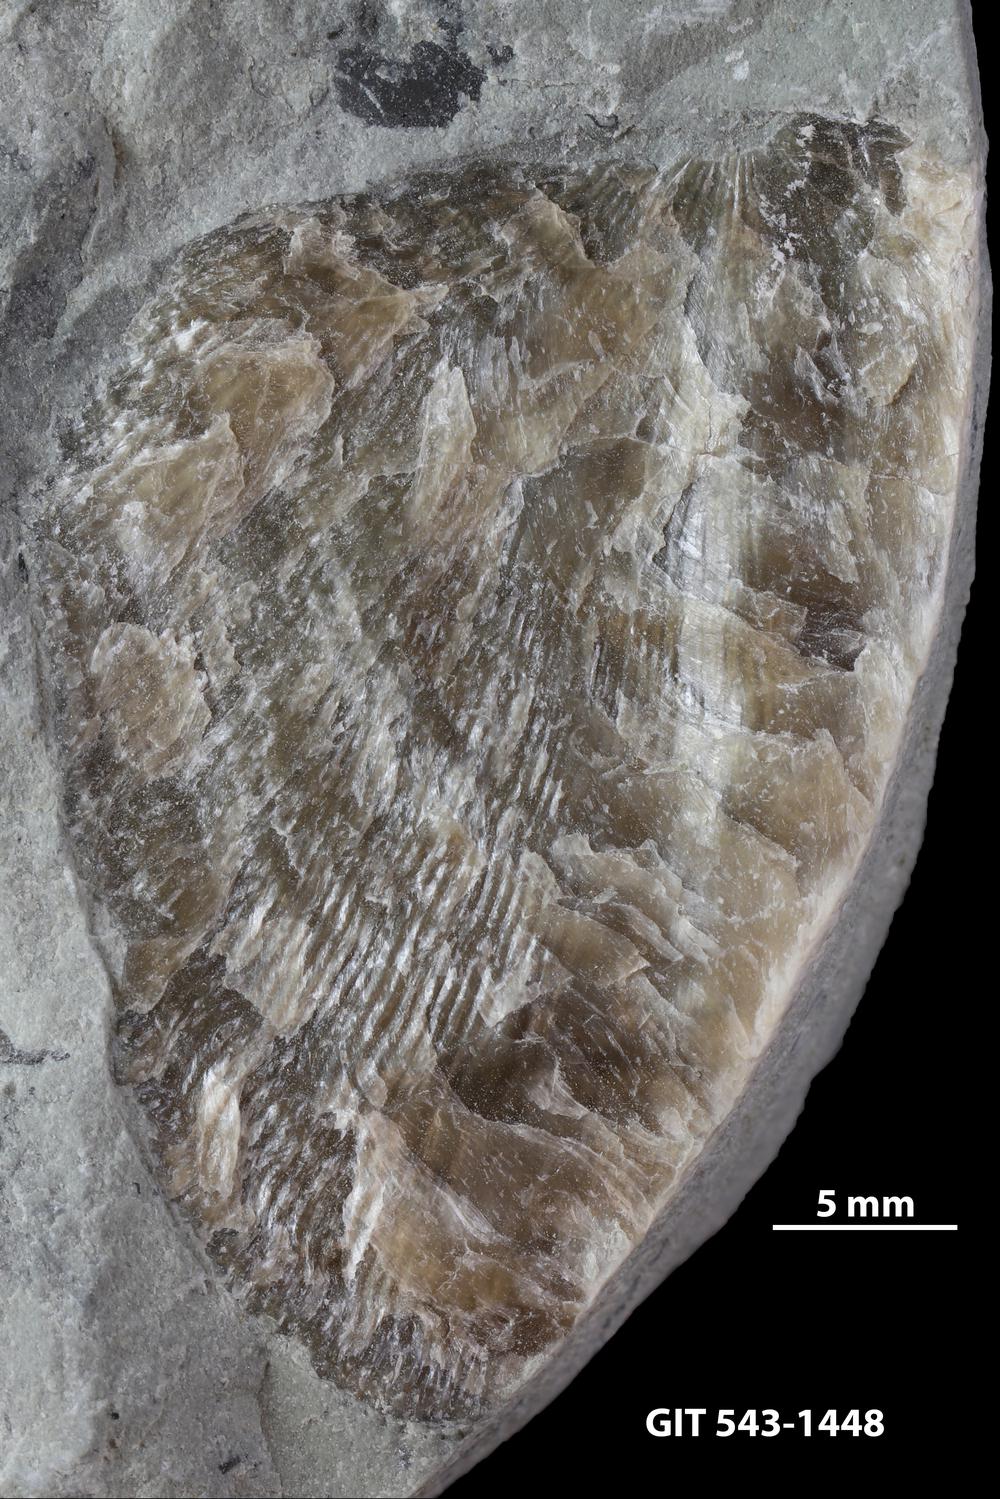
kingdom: Animalia
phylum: Brachiopoda
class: Rhynchonellata
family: Clitambonitidae
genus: Clitambonites
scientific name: Clitambonites
